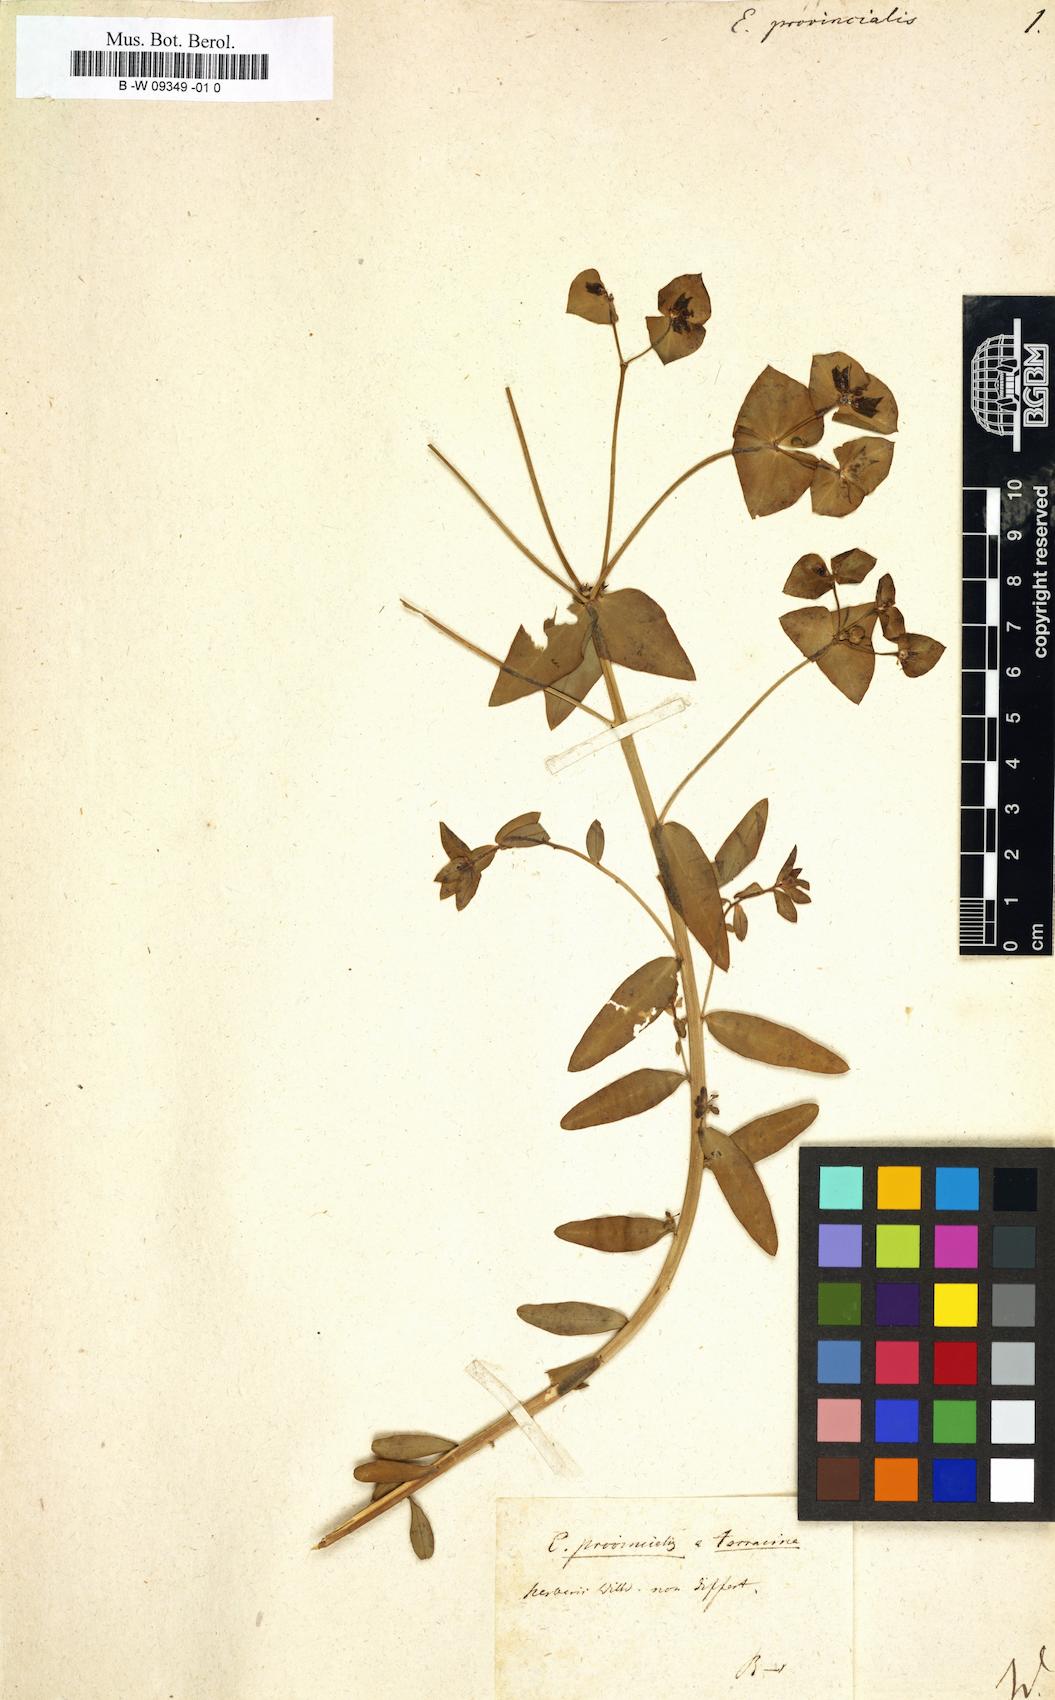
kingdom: Plantae
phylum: Tracheophyta
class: Magnoliopsida
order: Malpighiales
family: Euphorbiaceae
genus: Euphorbia
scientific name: Euphorbia terracina
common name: Geraldton carnation weed
